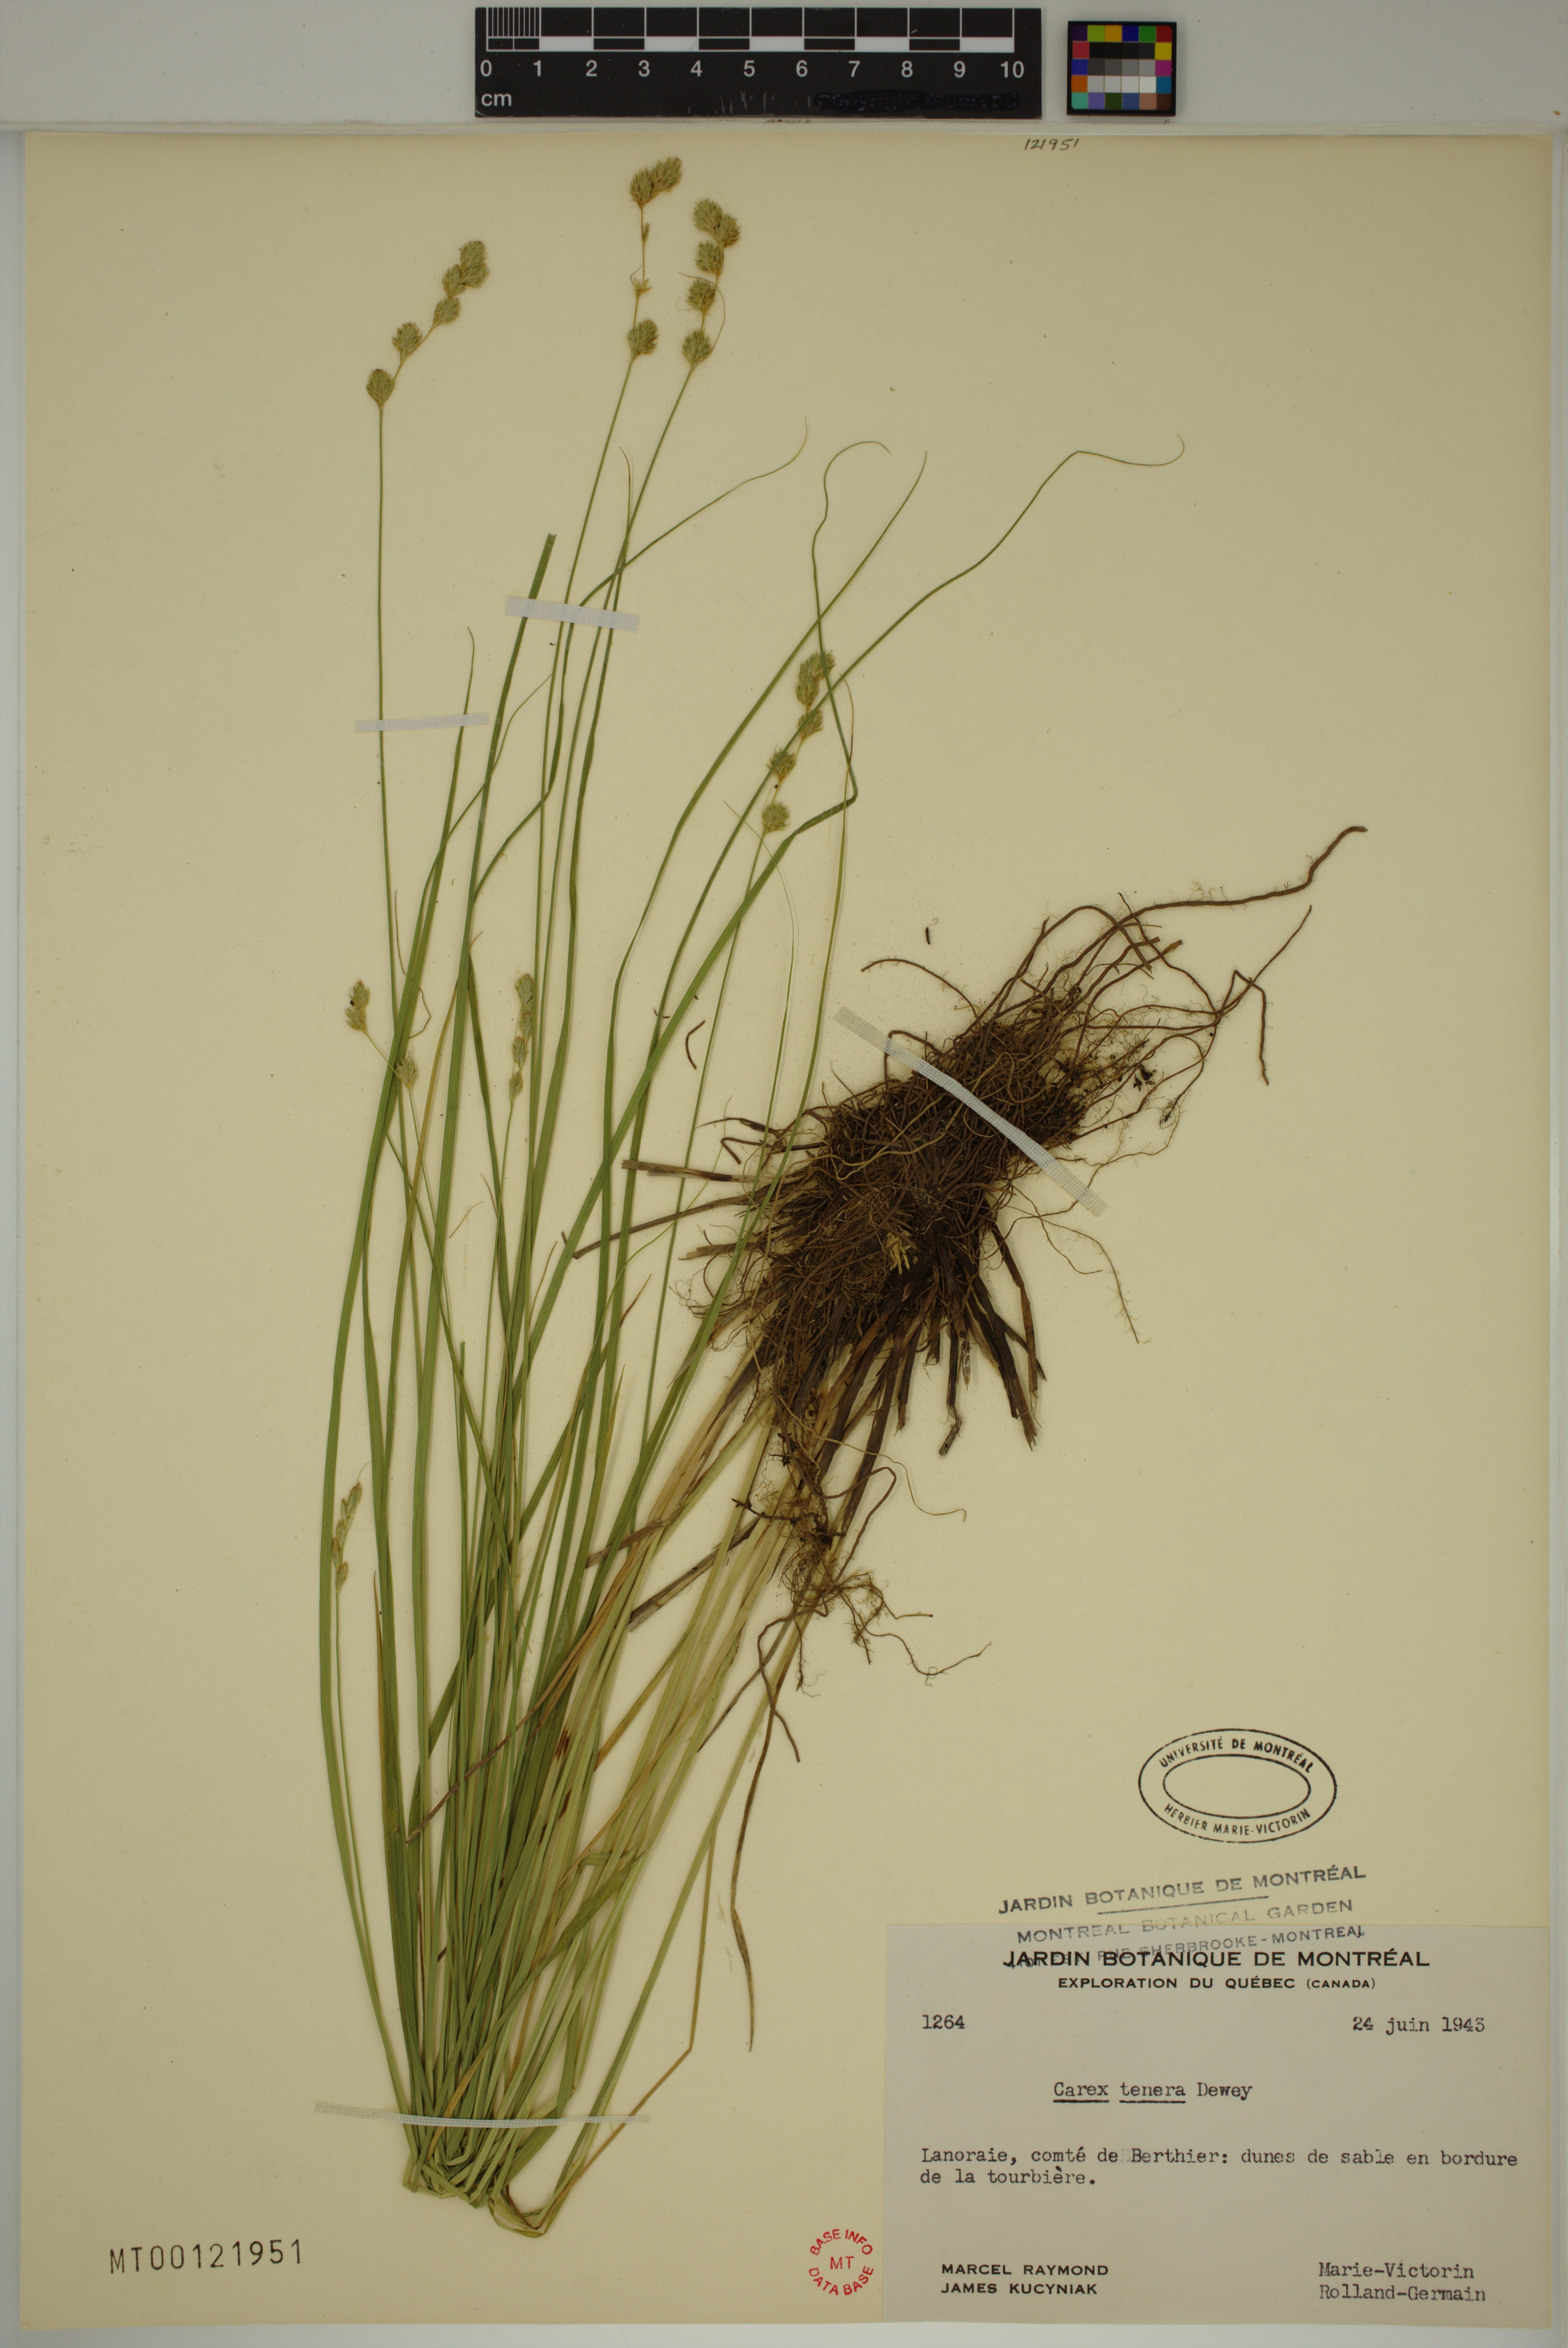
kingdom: Plantae
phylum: Tracheophyta
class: Liliopsida
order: Poales
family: Cyperaceae
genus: Carex
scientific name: Carex tenera
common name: Broad-fruited sedge
